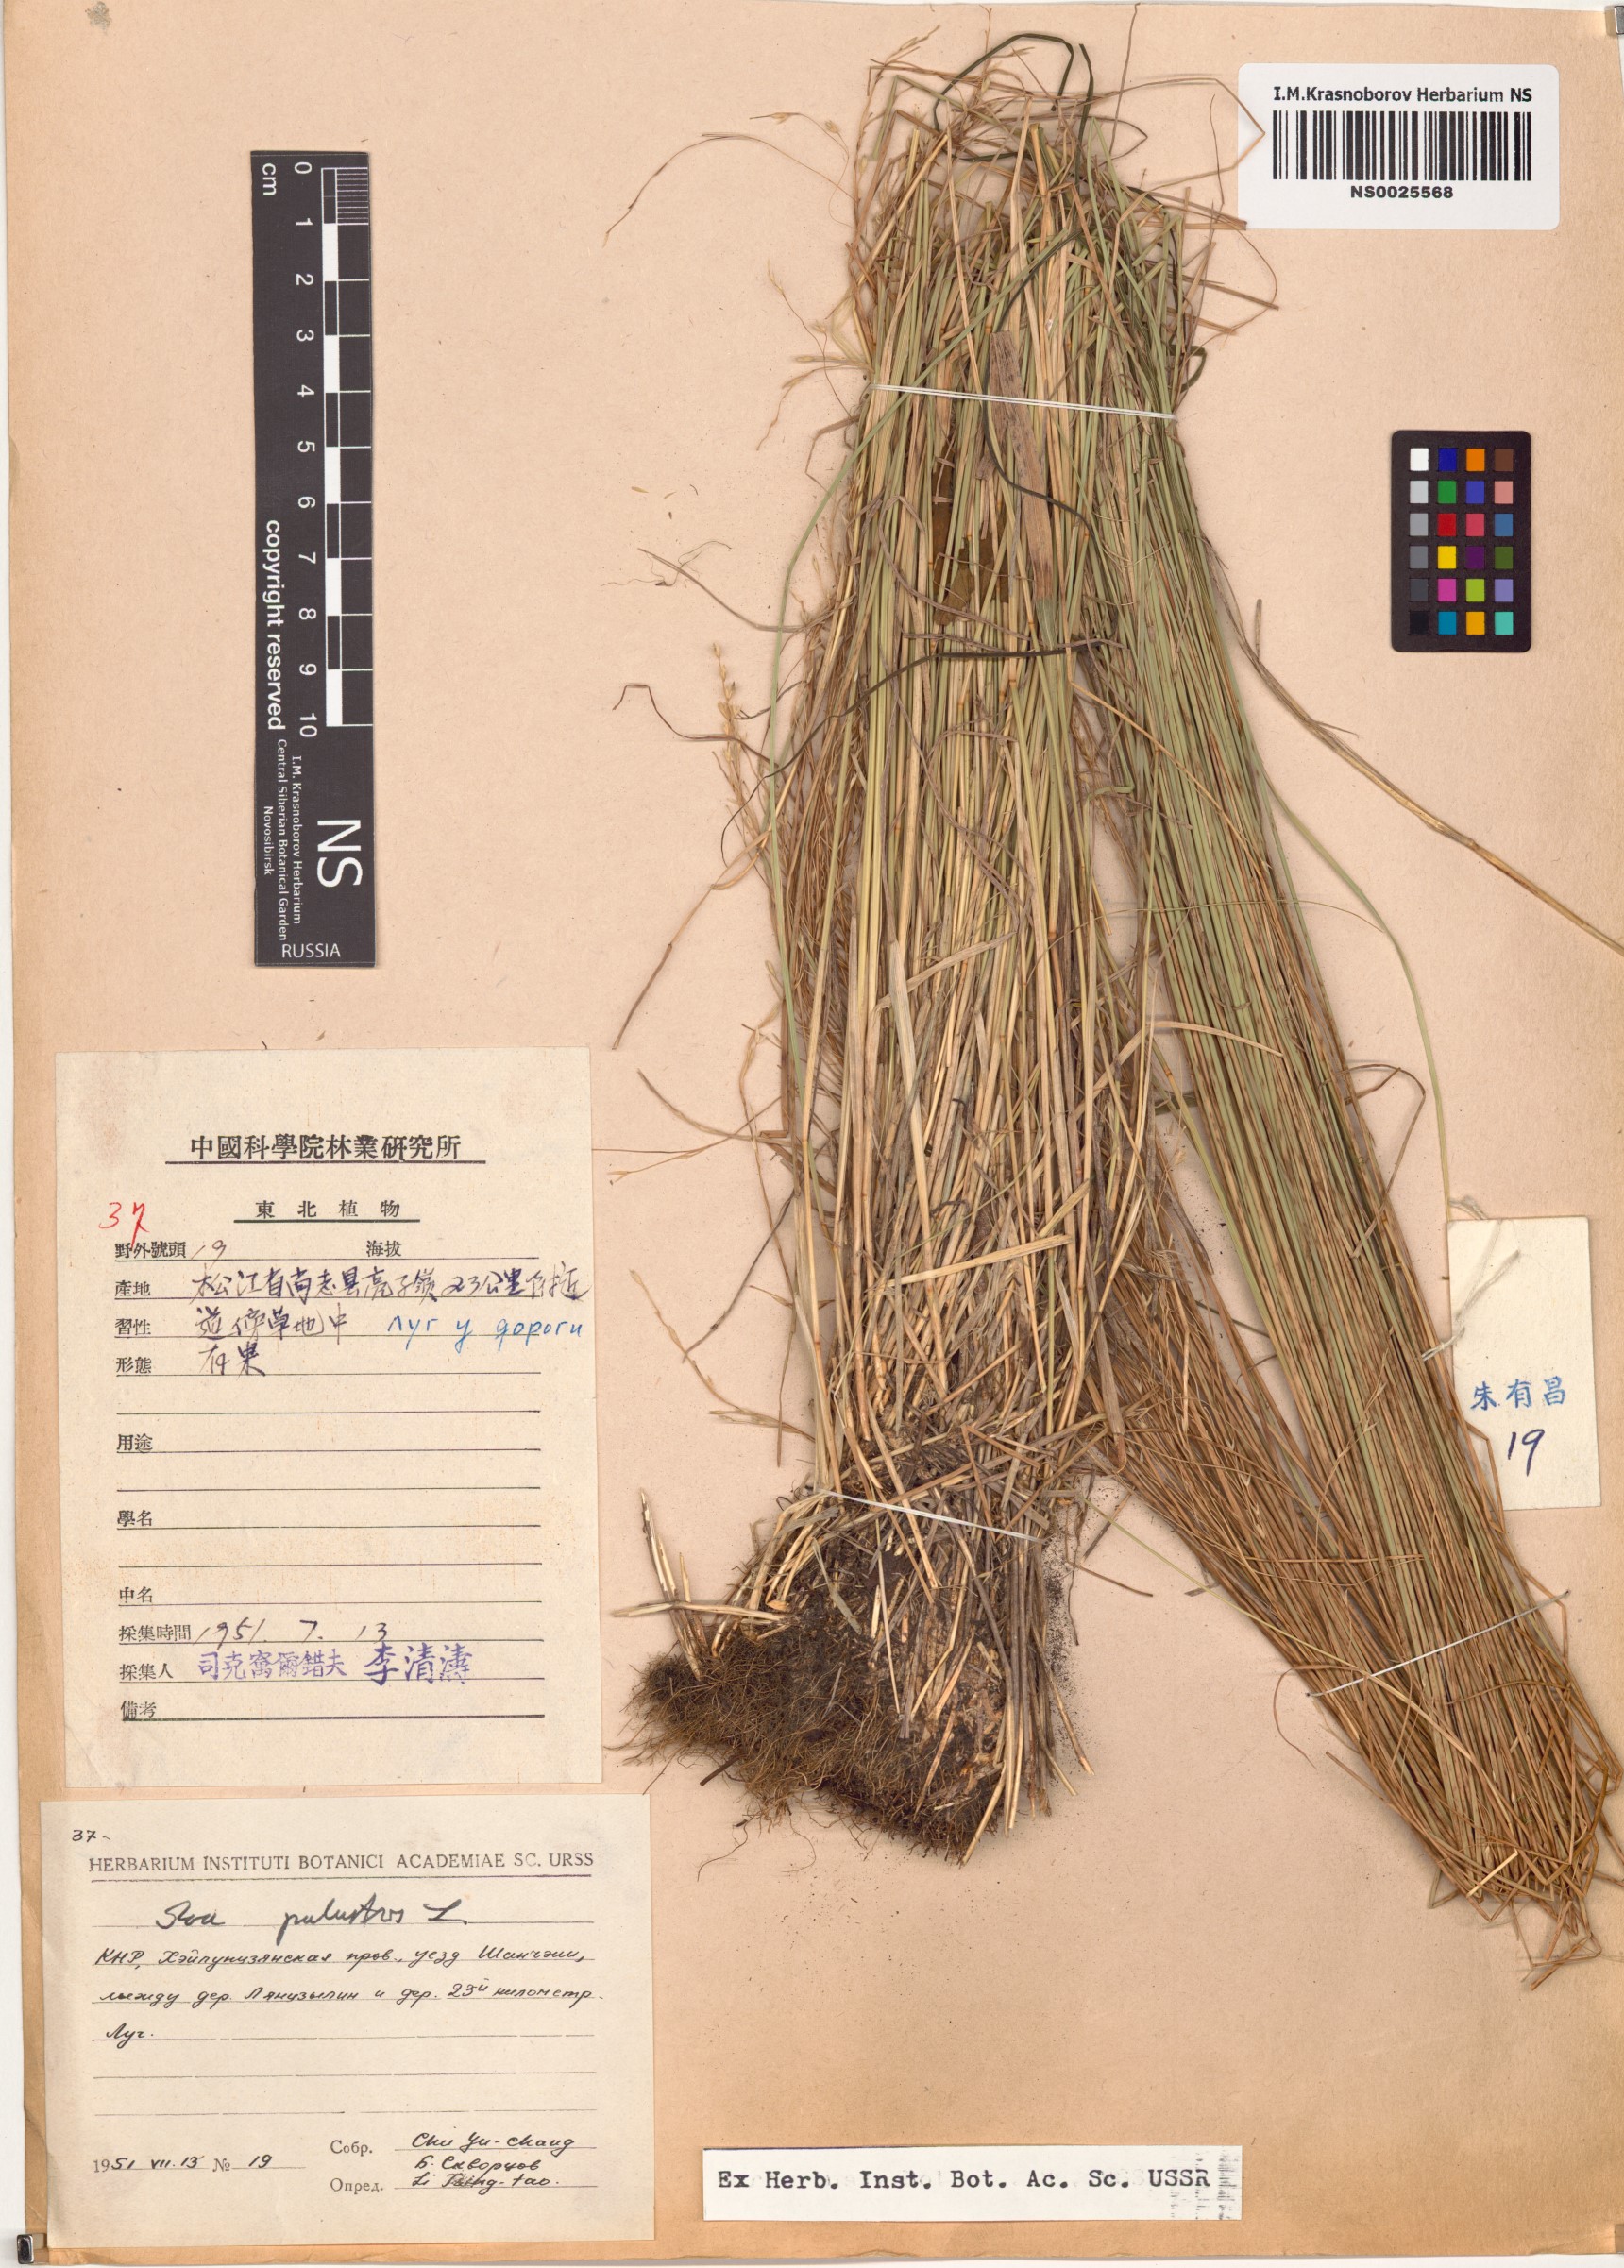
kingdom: Plantae
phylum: Tracheophyta
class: Liliopsida
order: Poales
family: Poaceae
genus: Poa
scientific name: Poa palustris
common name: Swamp meadow-grass
